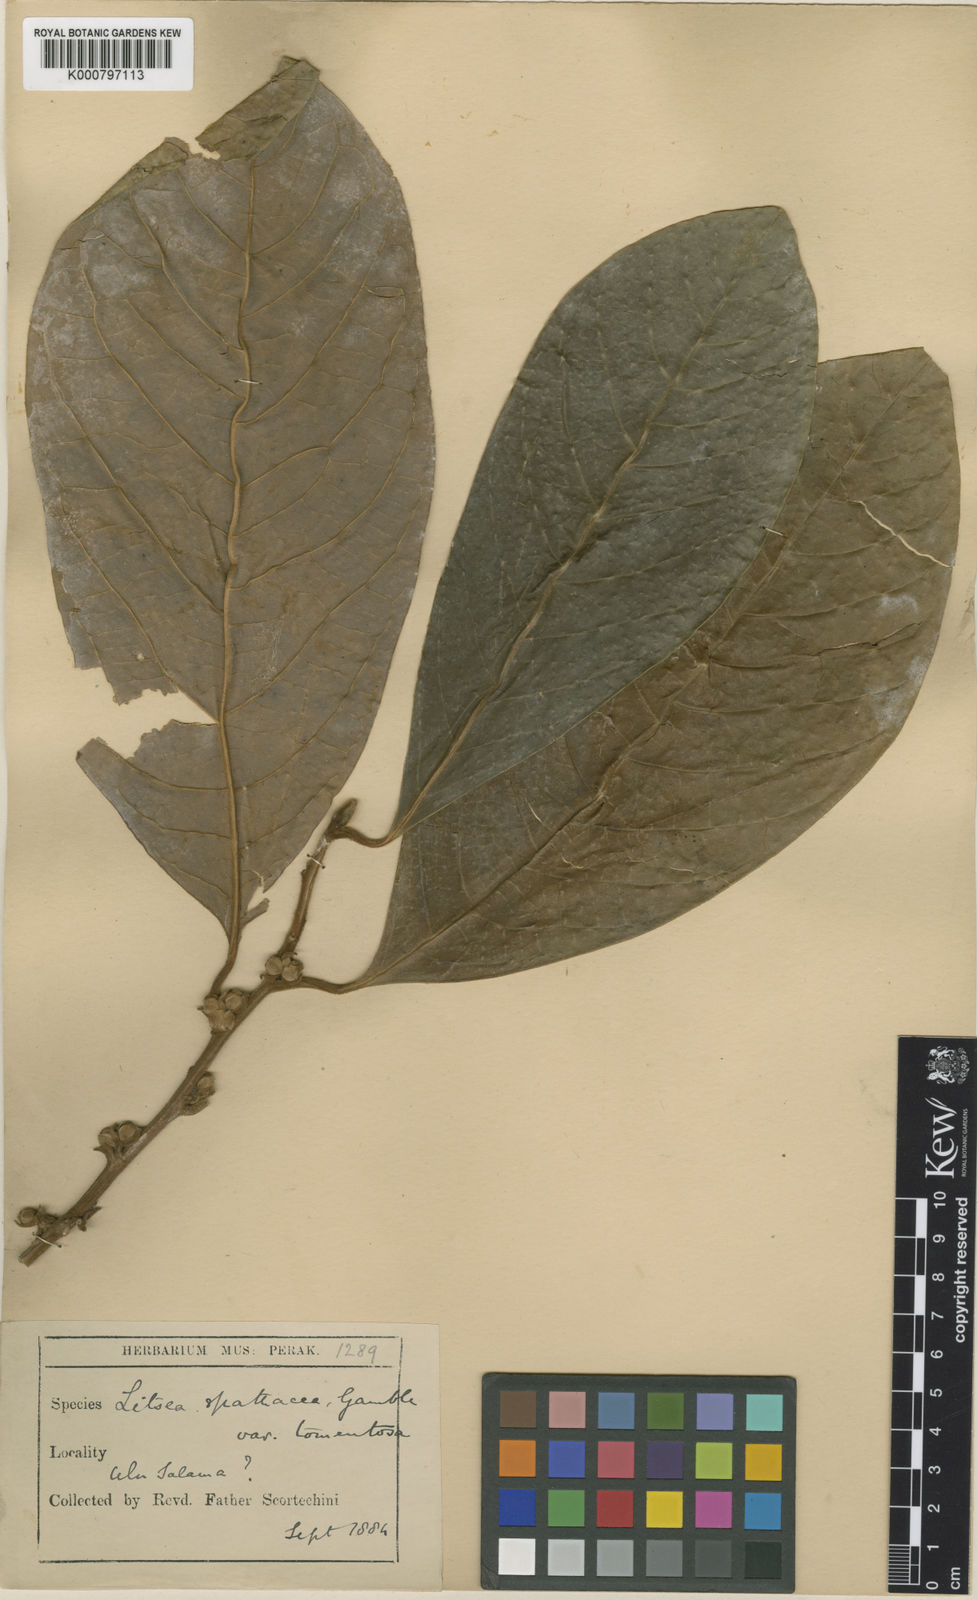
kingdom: Plantae
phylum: Tracheophyta
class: Magnoliopsida
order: Laurales
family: Lauraceae
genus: Litsea
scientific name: Litsea spathacea
